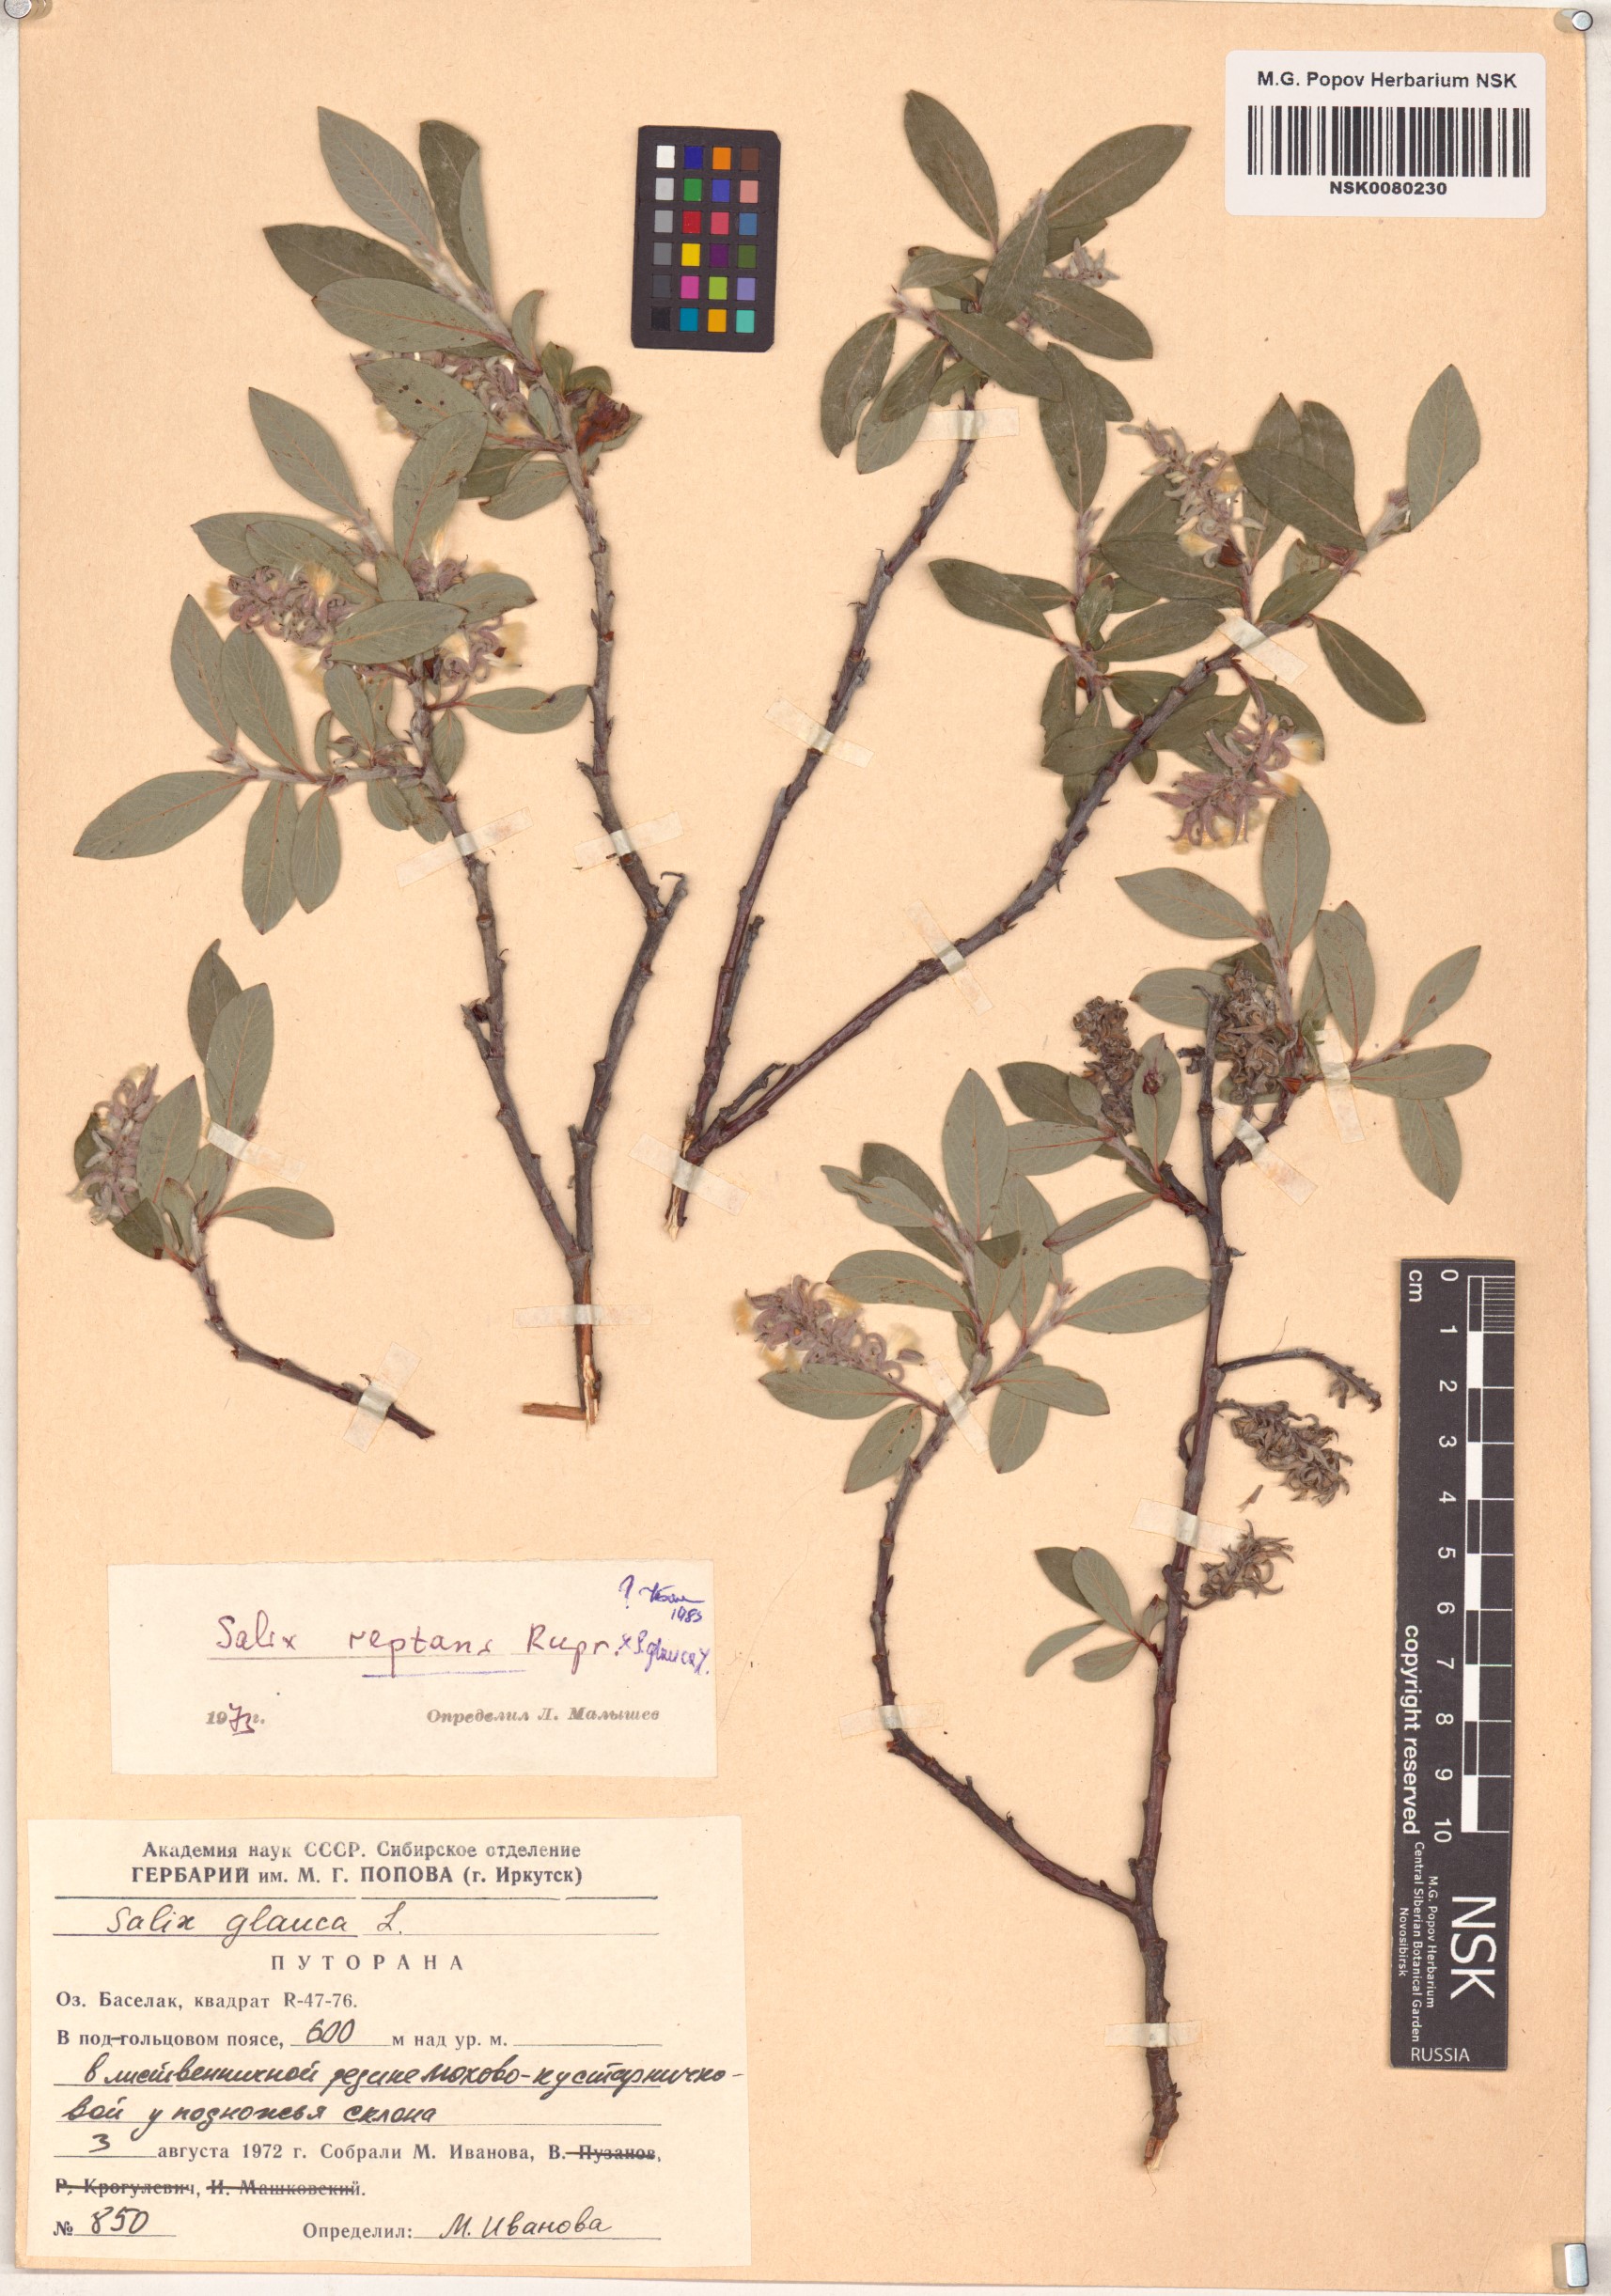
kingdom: Plantae
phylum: Tracheophyta
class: Magnoliopsida
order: Malpighiales
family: Salicaceae
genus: Salix
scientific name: Salix reptans
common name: Arctic creeping willow
